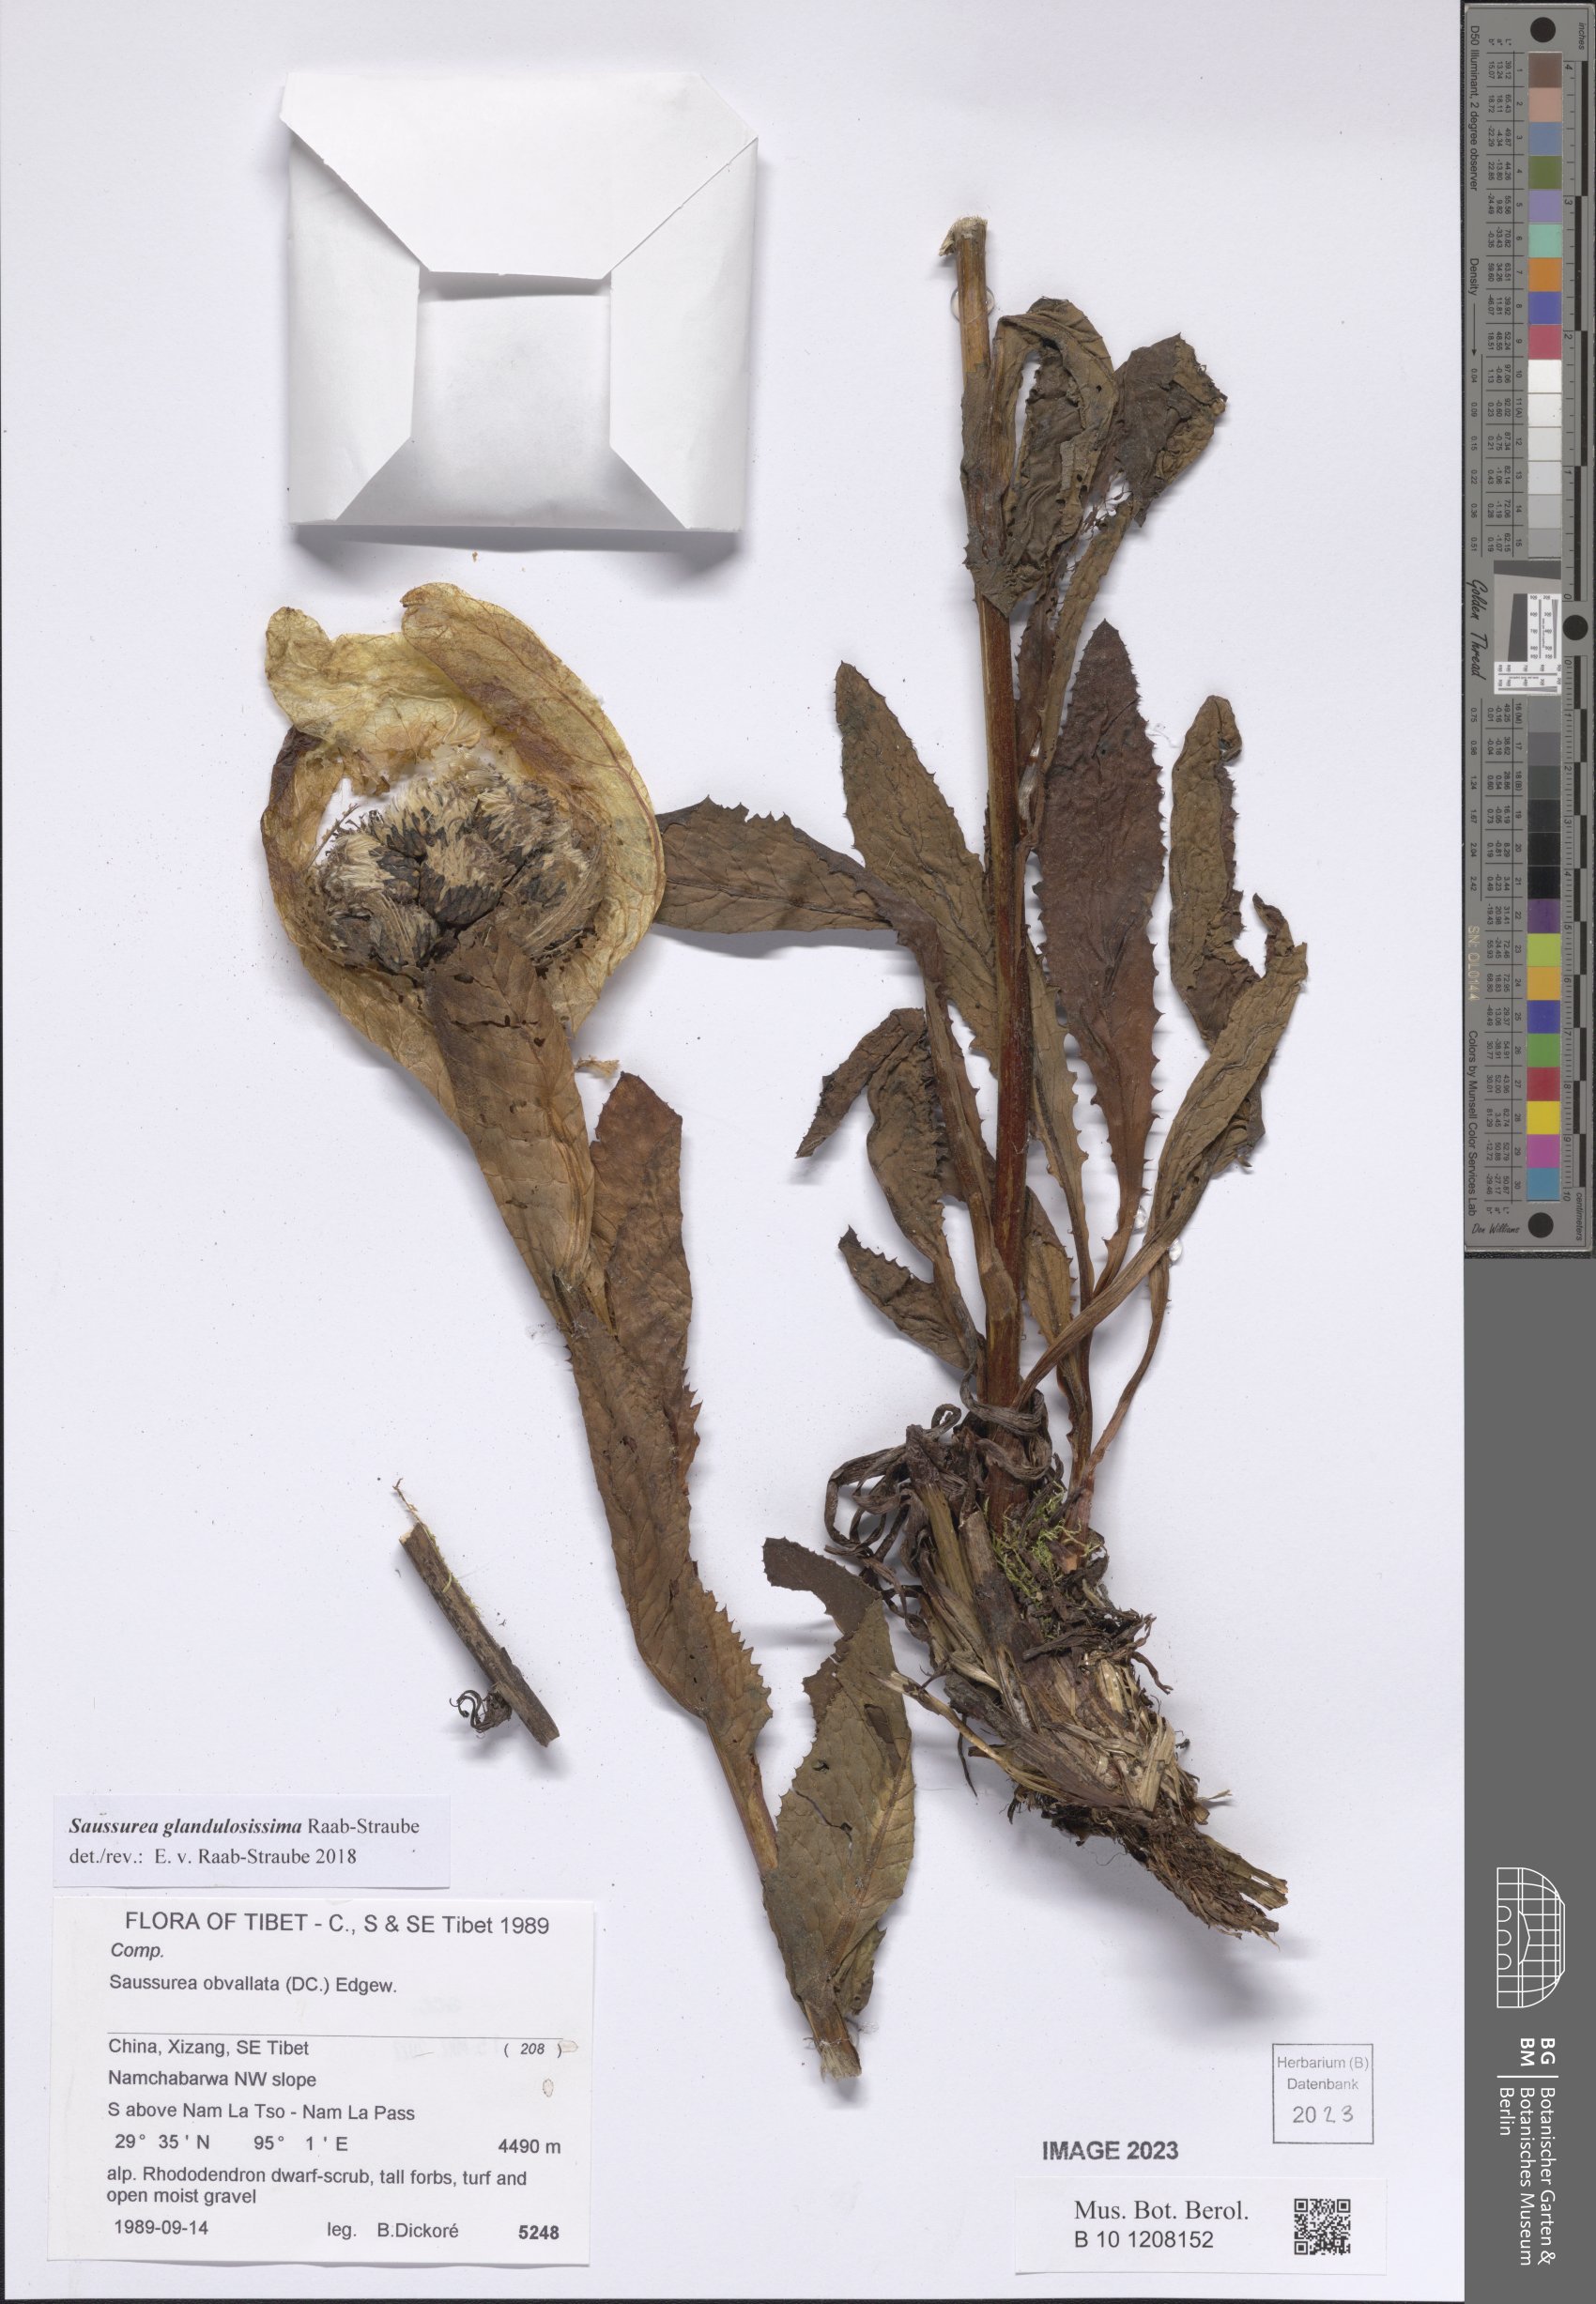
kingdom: Plantae
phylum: Tracheophyta
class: Magnoliopsida
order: Asterales
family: Asteraceae
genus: Saussurea
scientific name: Saussurea glandulosissima
